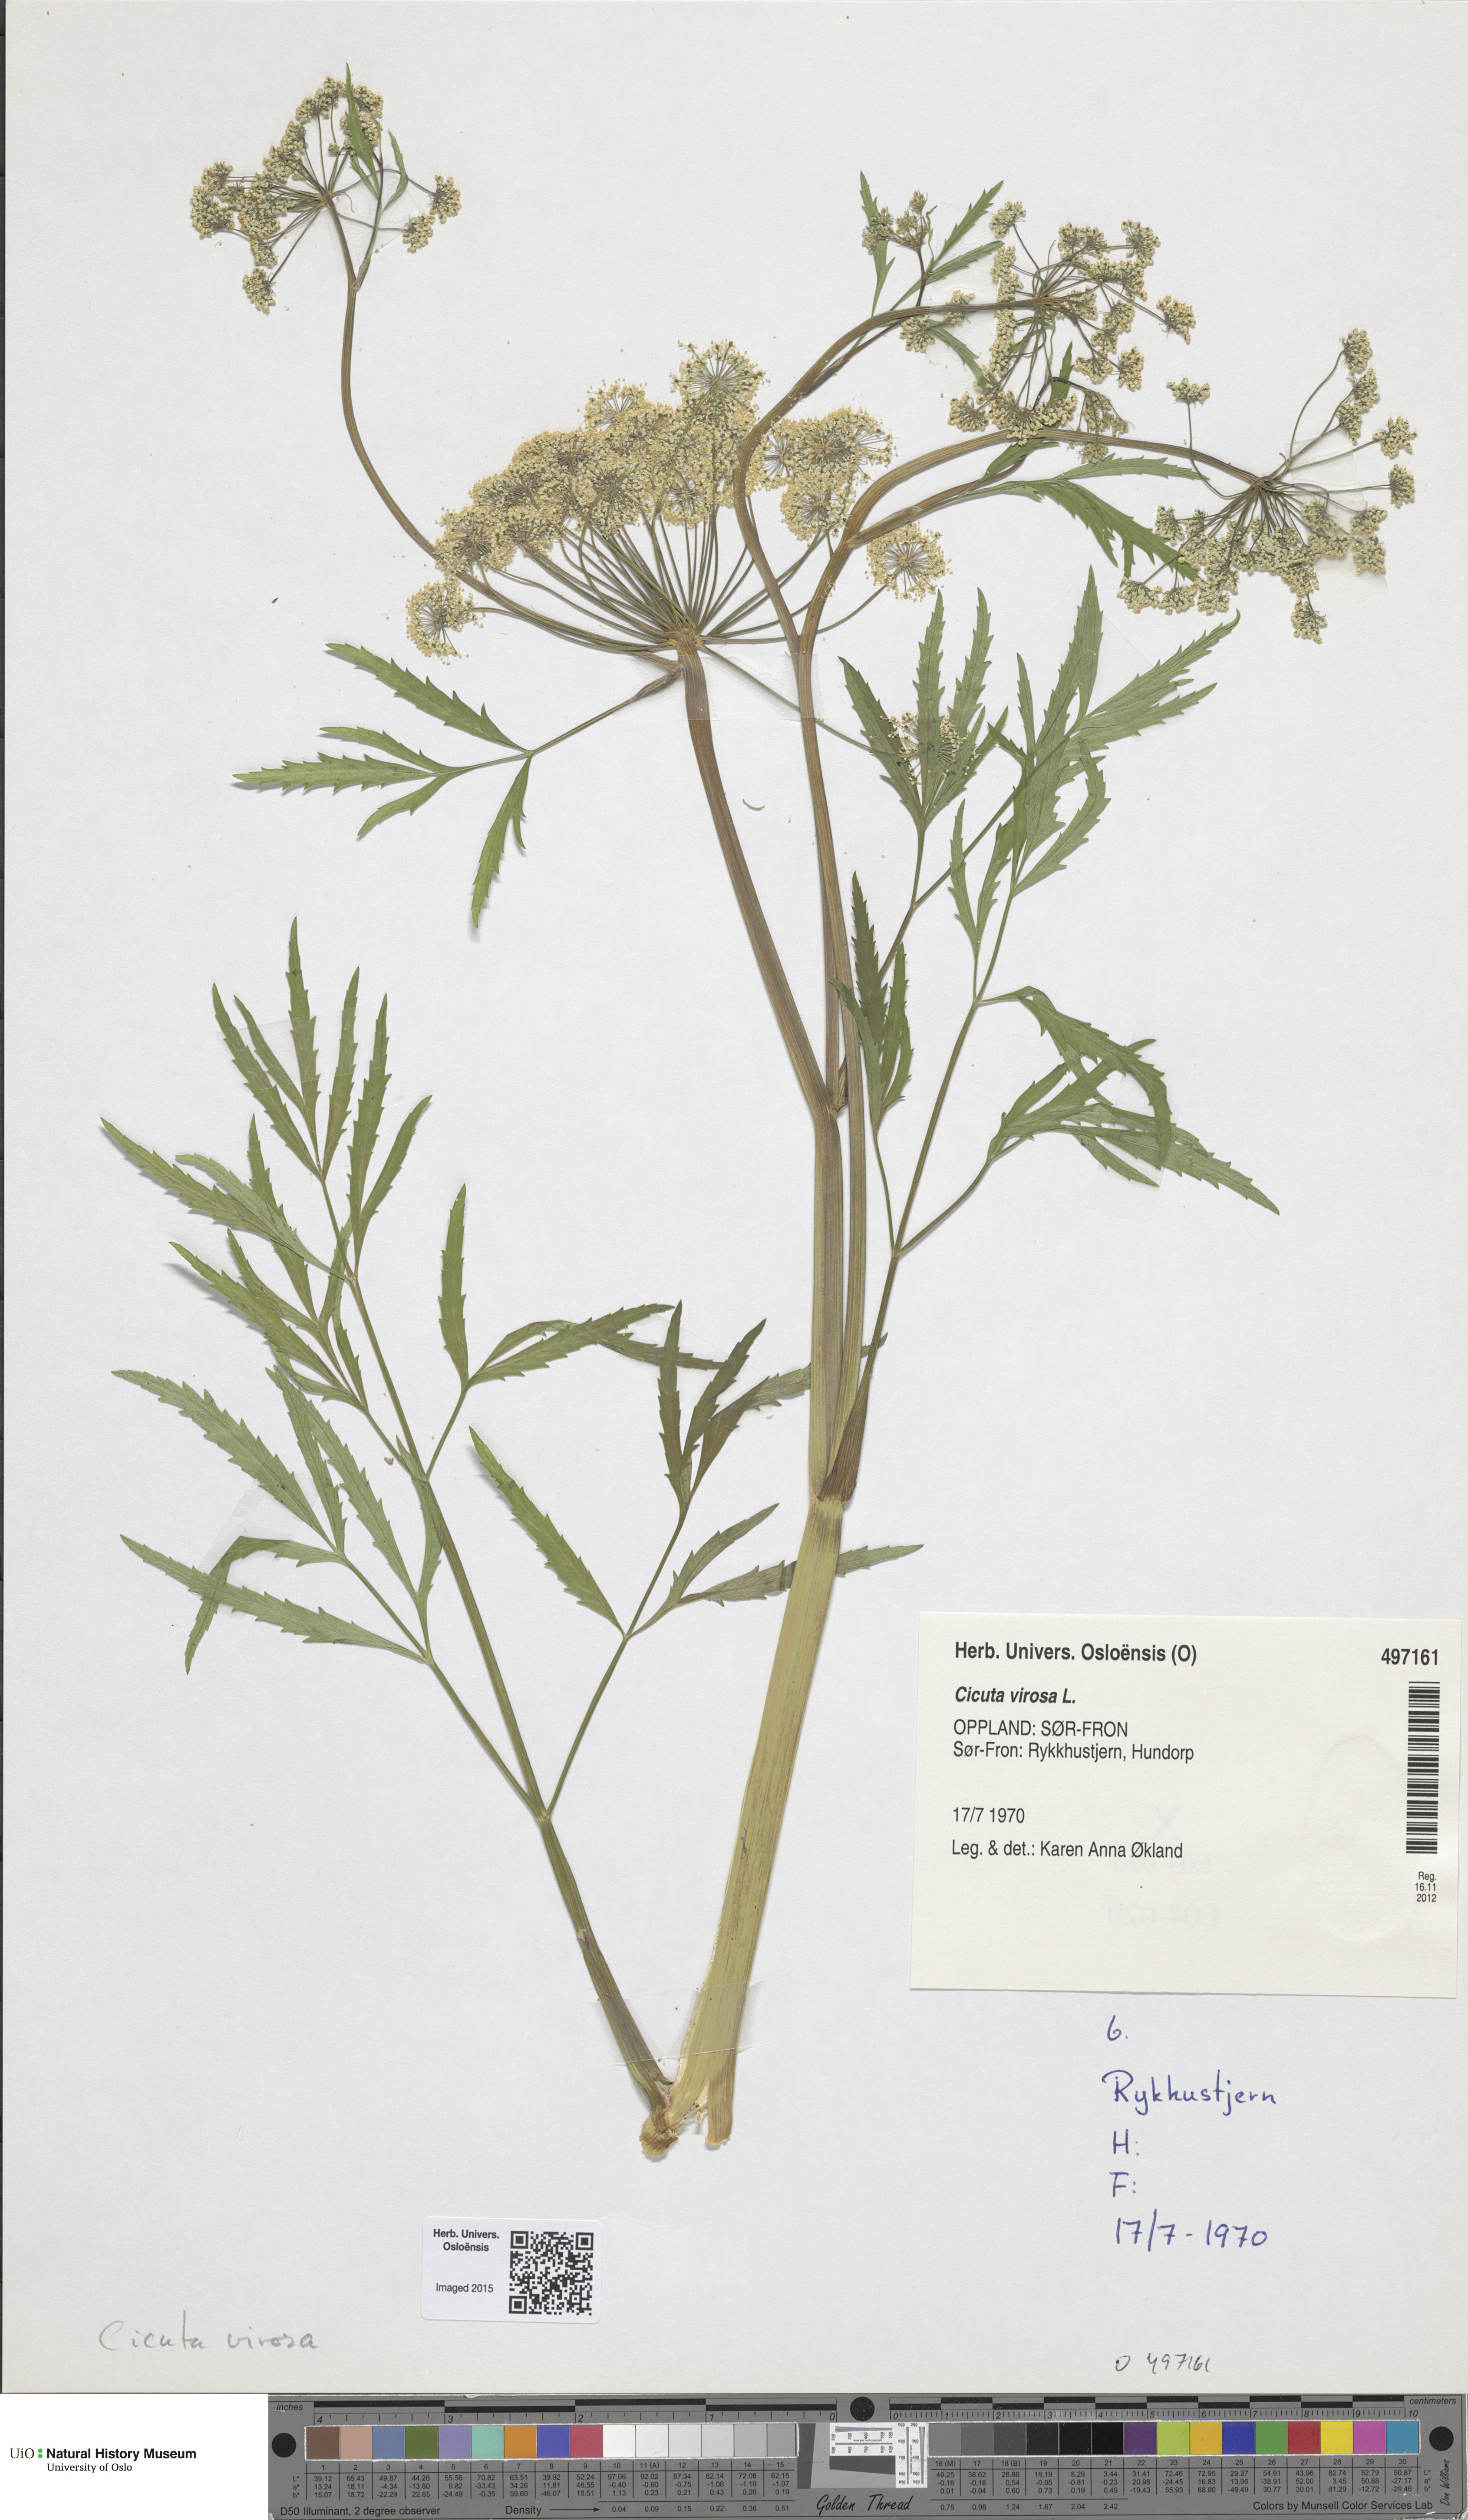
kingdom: Plantae
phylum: Tracheophyta
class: Magnoliopsida
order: Apiales
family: Apiaceae
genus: Cicuta
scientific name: Cicuta virosa
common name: Cowbane
